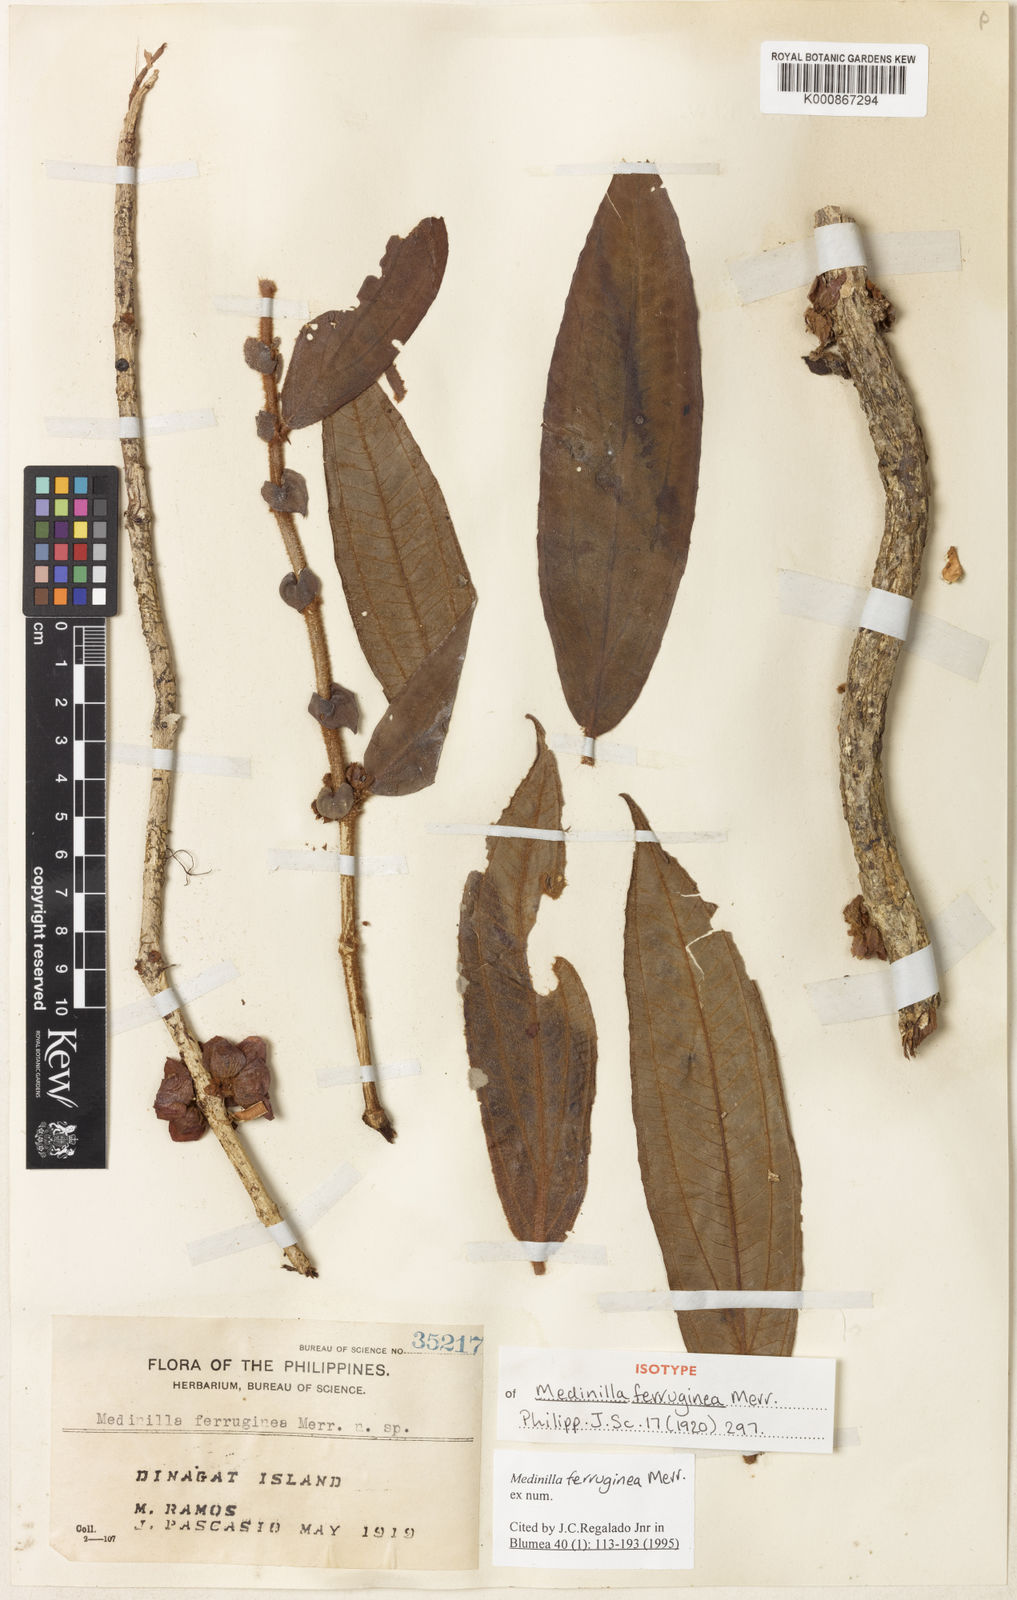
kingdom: Plantae
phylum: Tracheophyta
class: Magnoliopsida
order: Myrtales
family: Melastomataceae
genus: Medinilla
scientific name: Medinilla ferruginea
